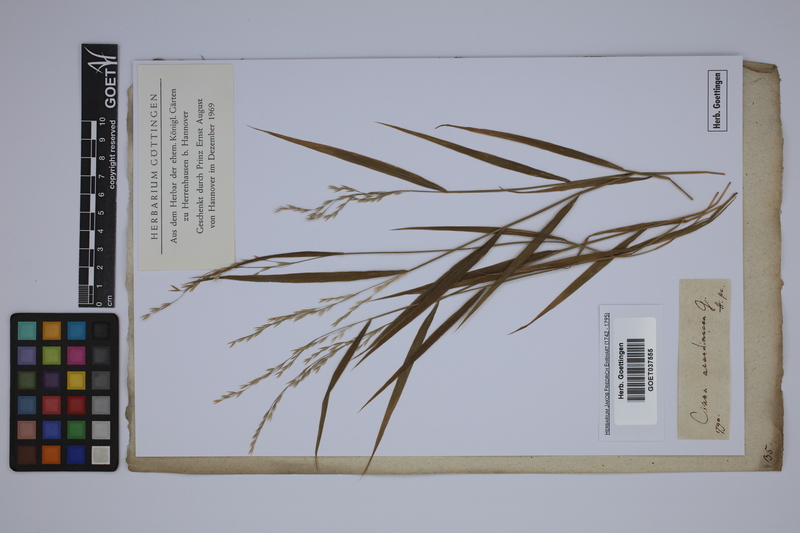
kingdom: Plantae
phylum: Tracheophyta
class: Liliopsida
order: Poales
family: Poaceae
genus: Cinna
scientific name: Cinna arundinacea
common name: Stout woodreed
